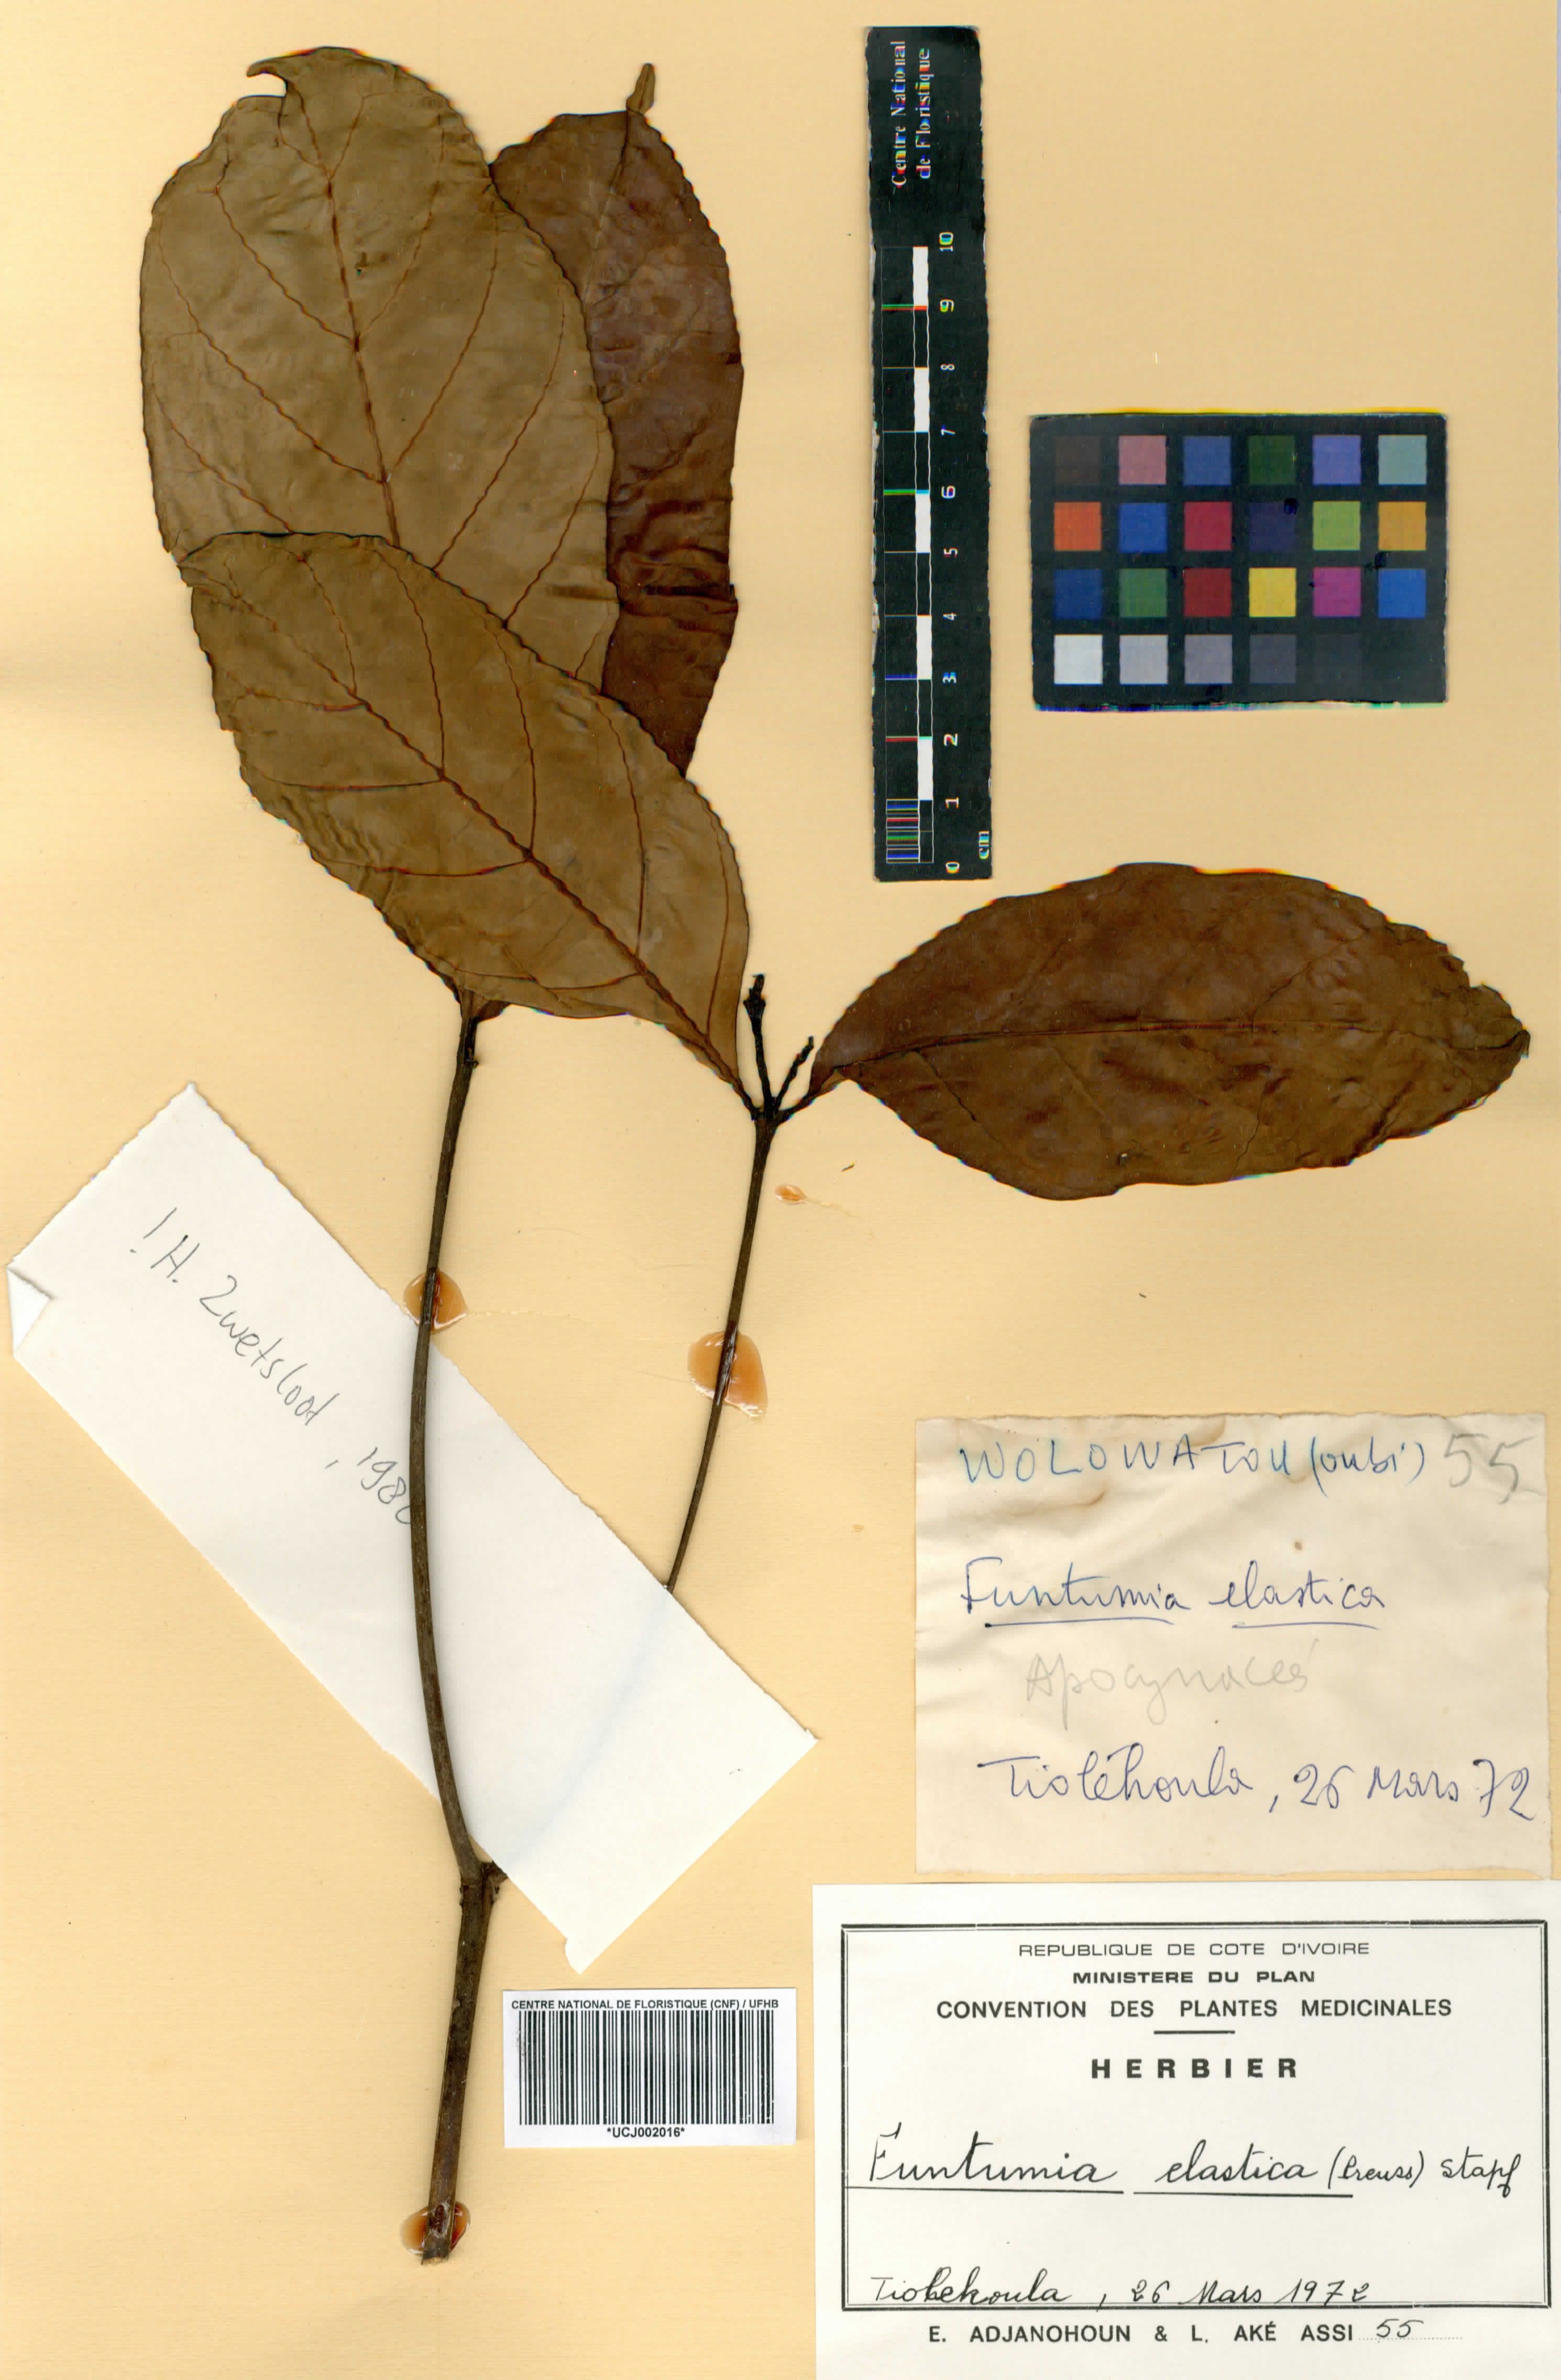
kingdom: Plantae
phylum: Tracheophyta
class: Magnoliopsida
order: Gentianales
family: Apocynaceae
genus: Funtumia
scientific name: Funtumia elastica
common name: Silkrubber
